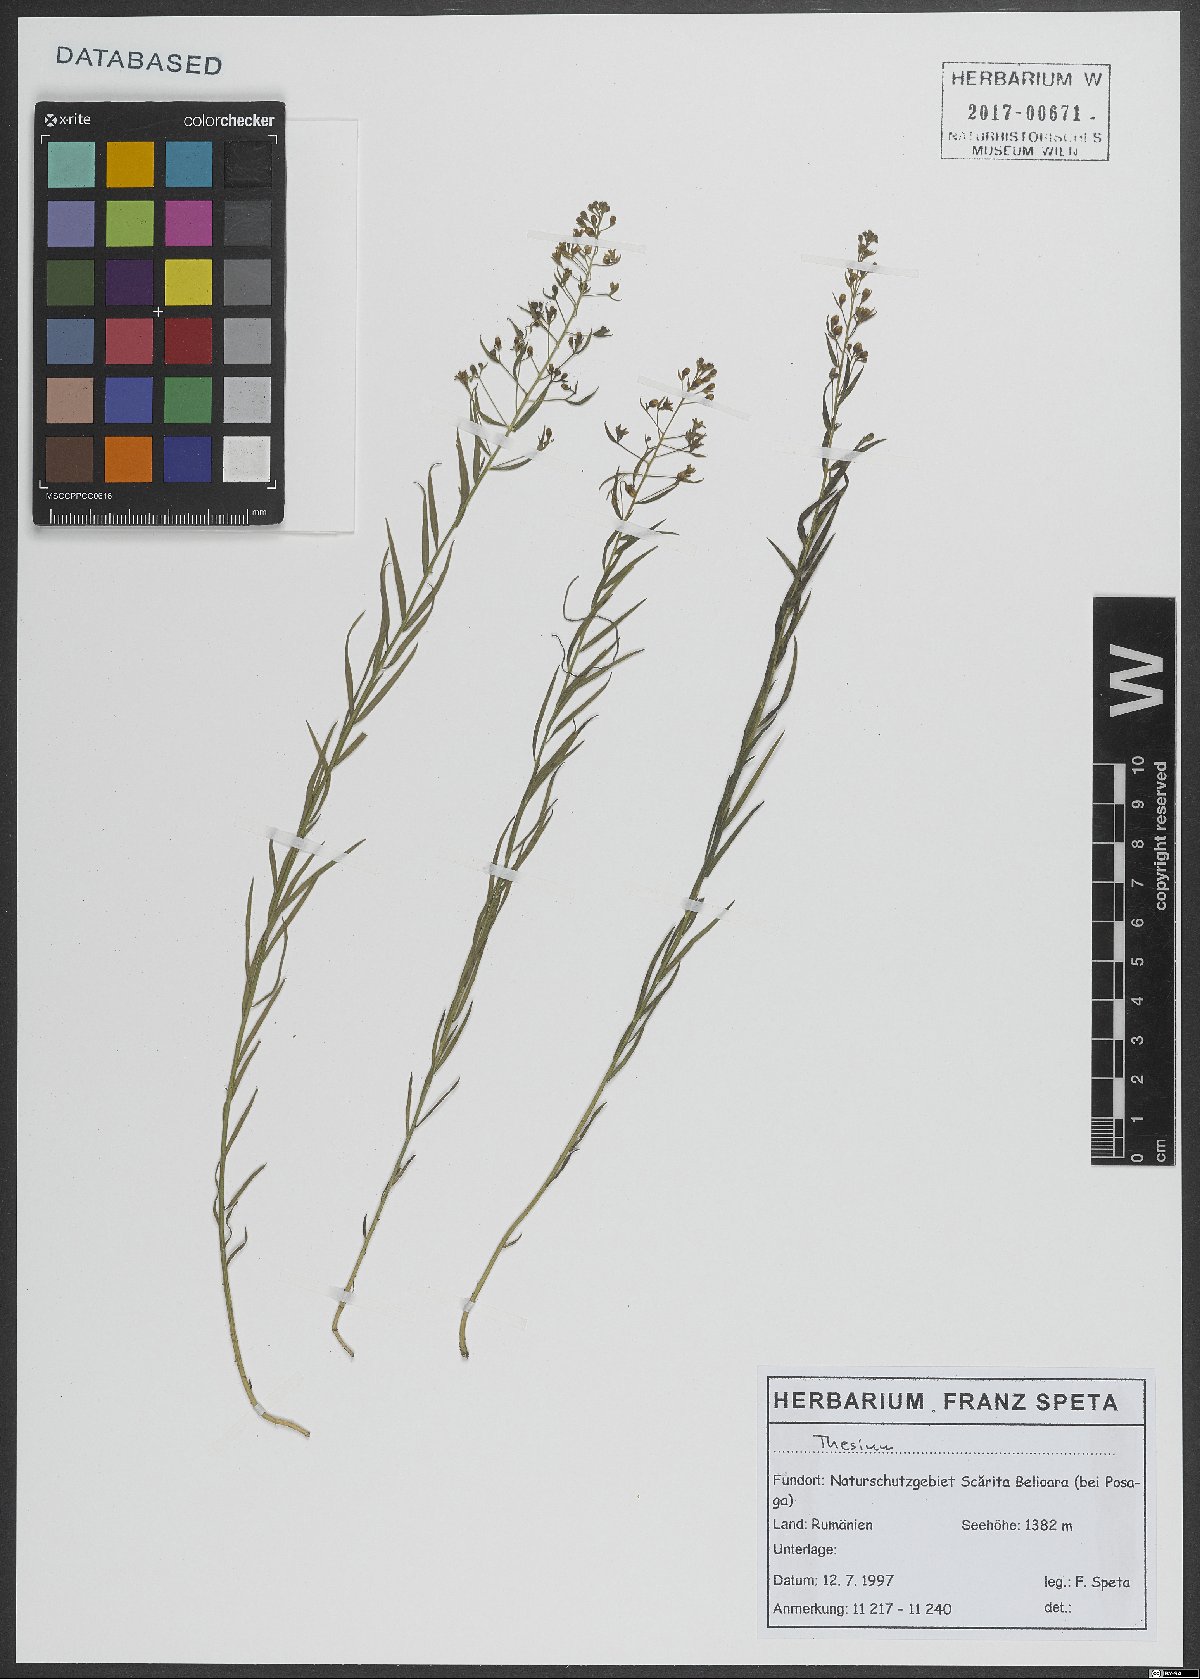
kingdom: Plantae
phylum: Tracheophyta
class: Magnoliopsida
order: Santalales
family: Thesiaceae
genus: Thesium
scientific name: Thesium
